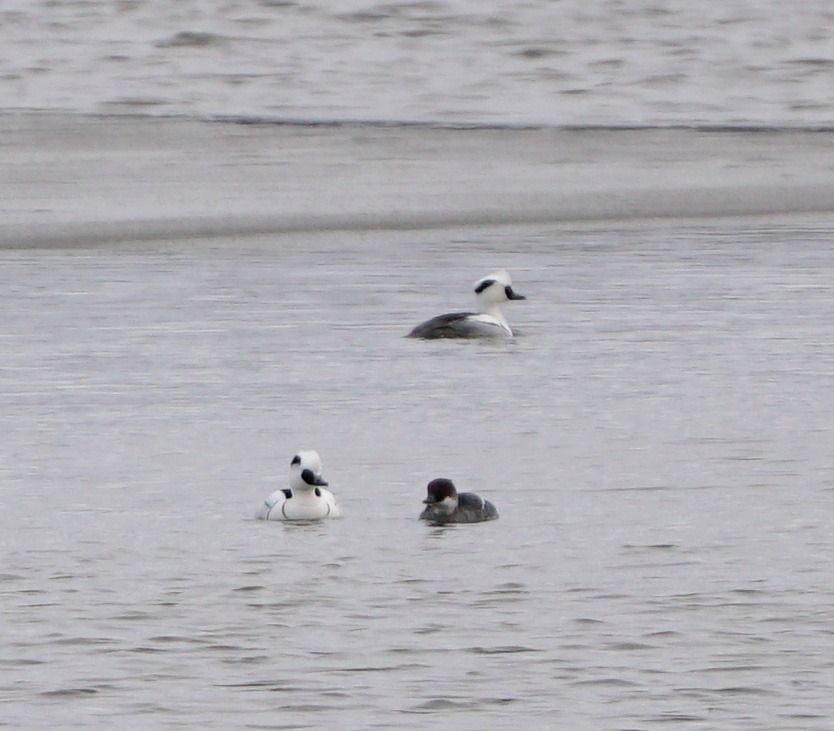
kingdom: Animalia
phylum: Chordata
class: Aves
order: Anseriformes
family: Anatidae
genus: Mergellus
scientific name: Mergellus albellus
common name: Lille skallesluger
